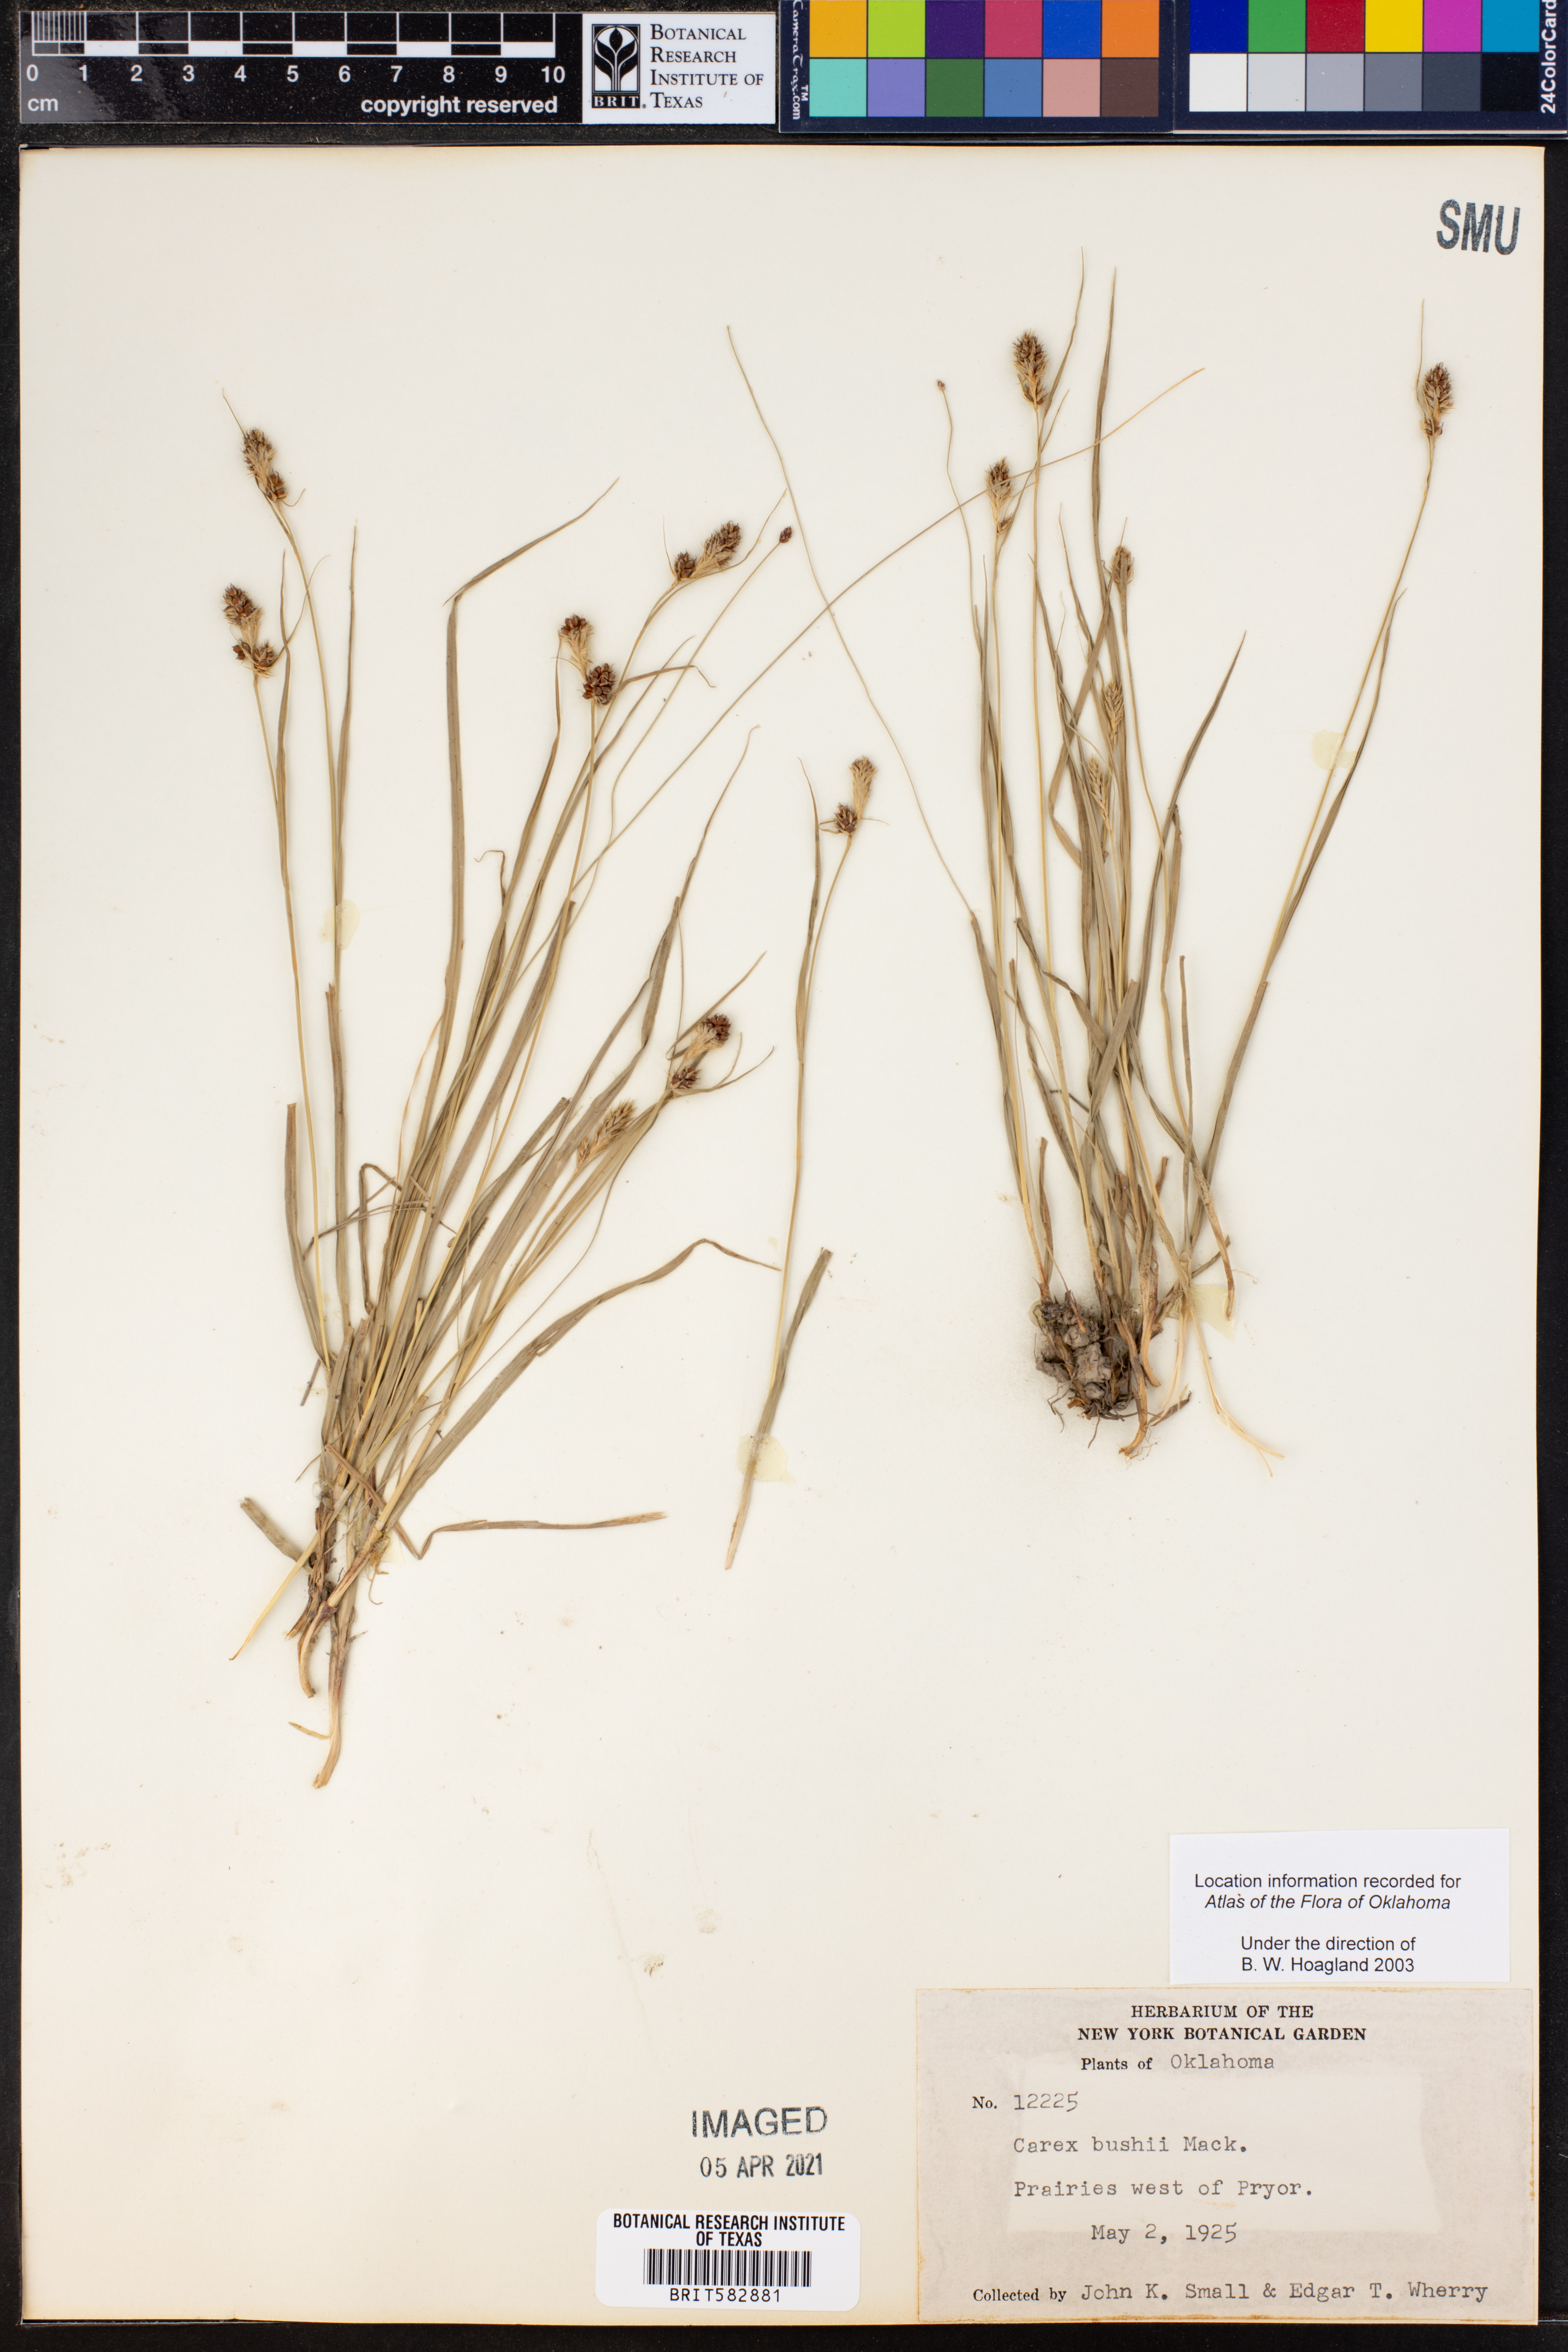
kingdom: Plantae
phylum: Tracheophyta
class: Liliopsida
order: Poales
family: Cyperaceae
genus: Carex
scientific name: Carex bushii
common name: Bush's sedge
